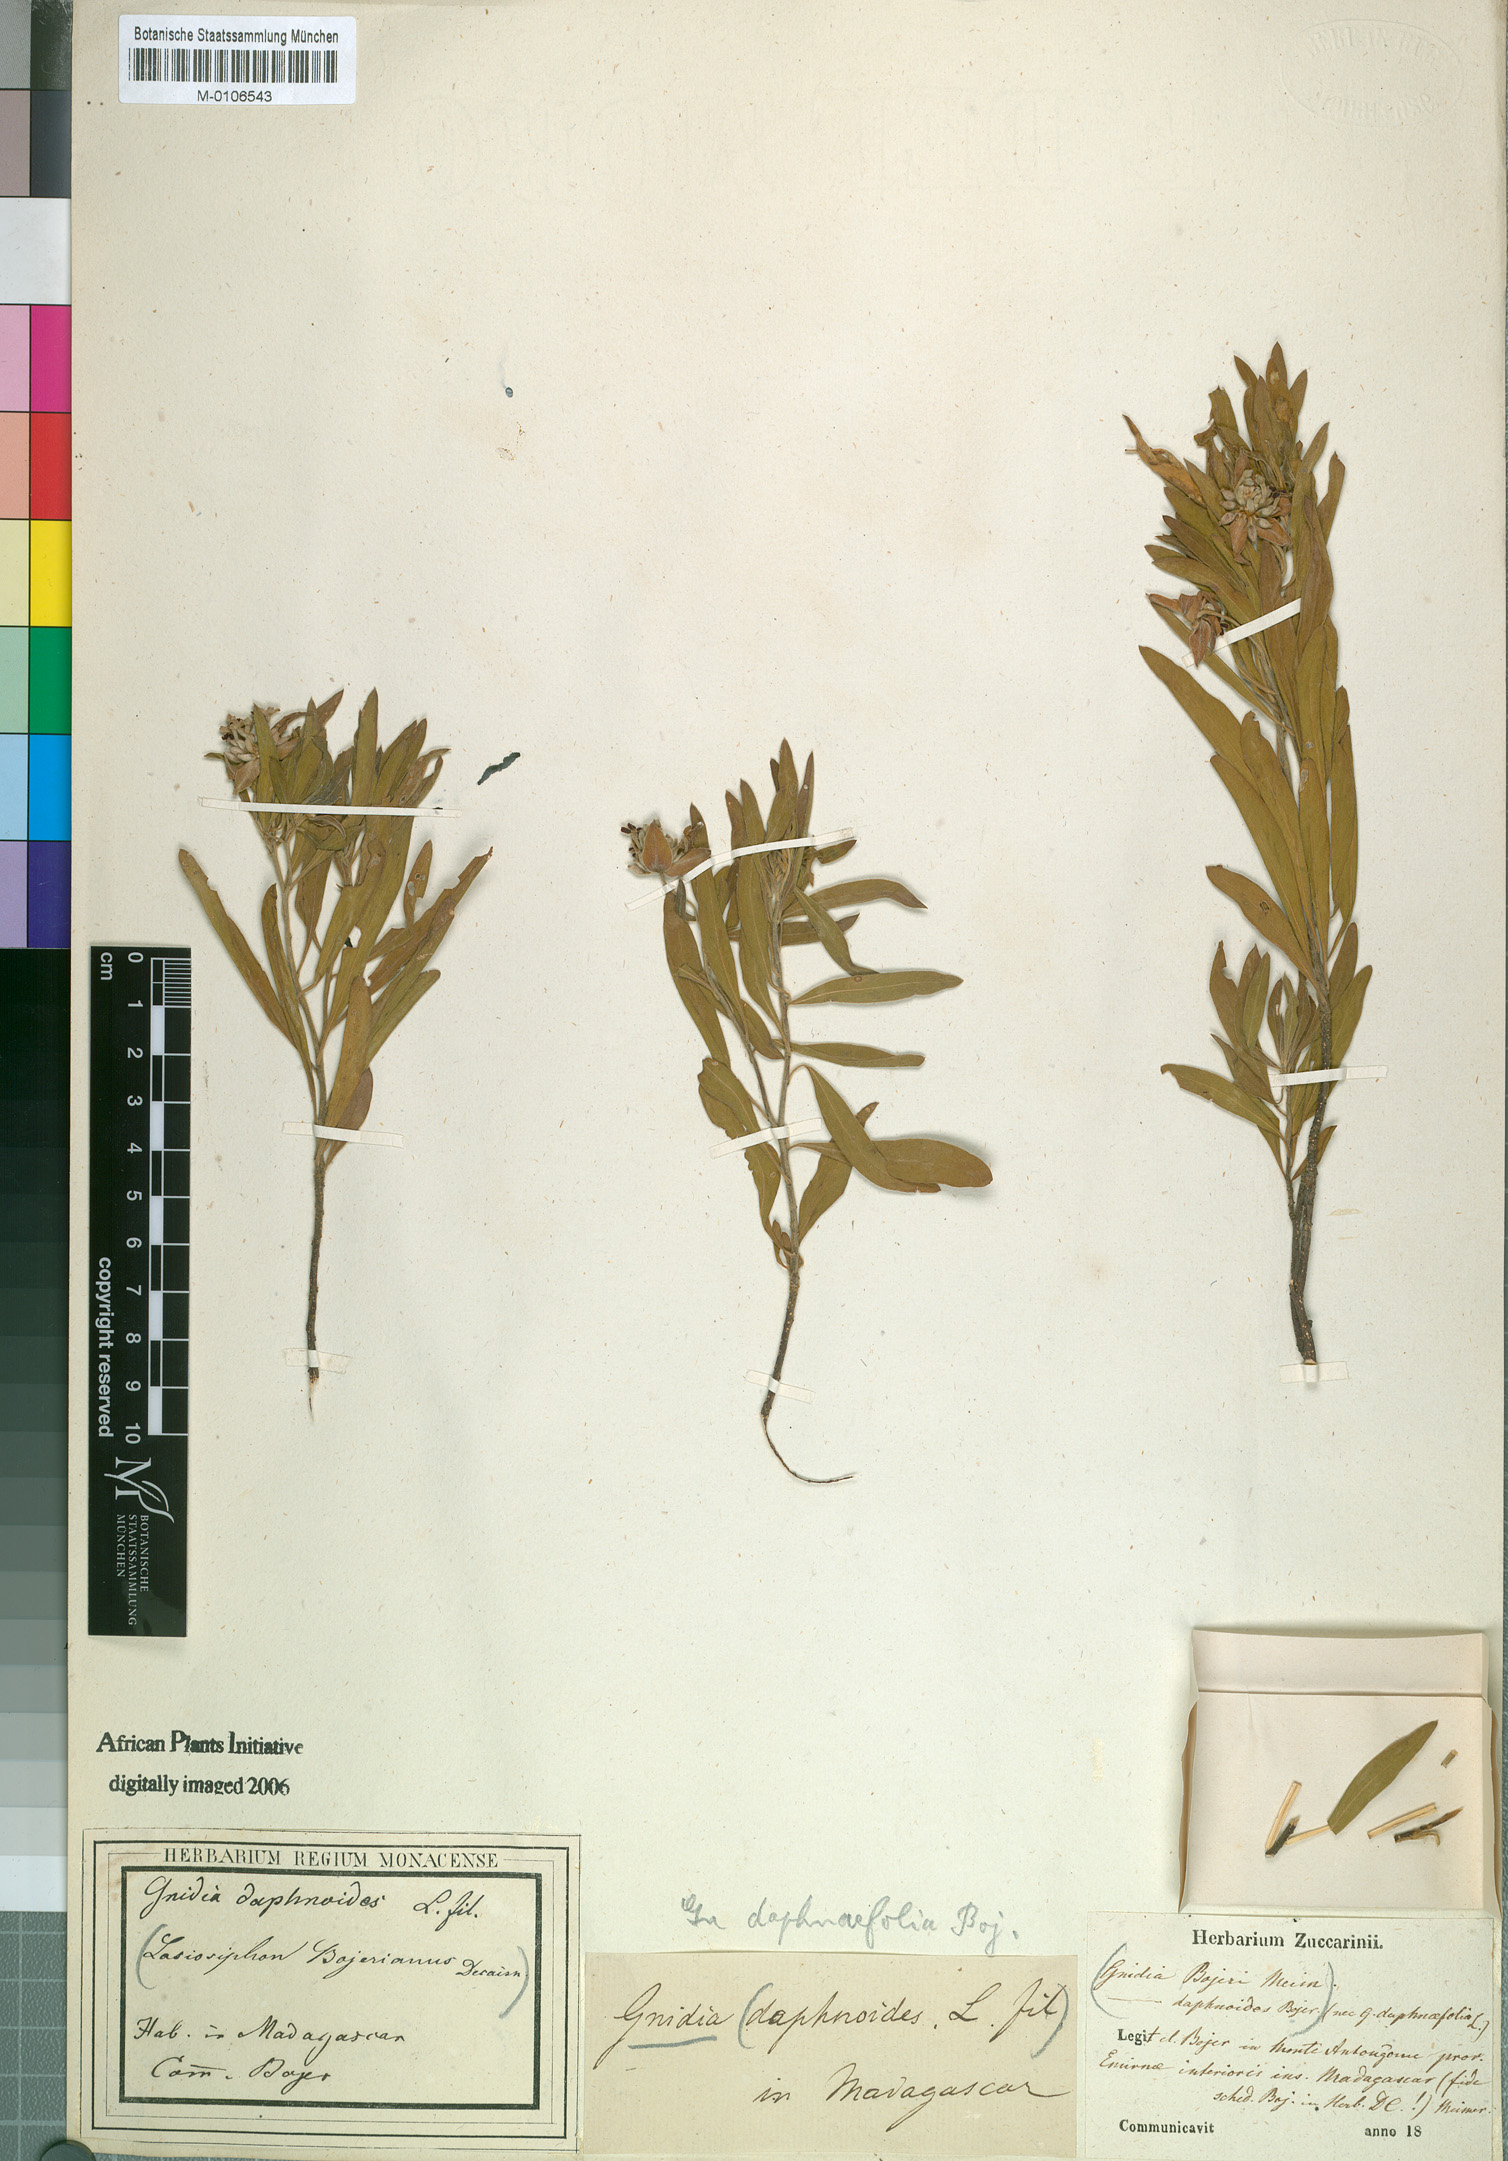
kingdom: Plantae
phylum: Tracheophyta
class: Magnoliopsida
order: Malvales
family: Thymelaeaceae
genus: Gnidia
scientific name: Gnidia daphnifolia
